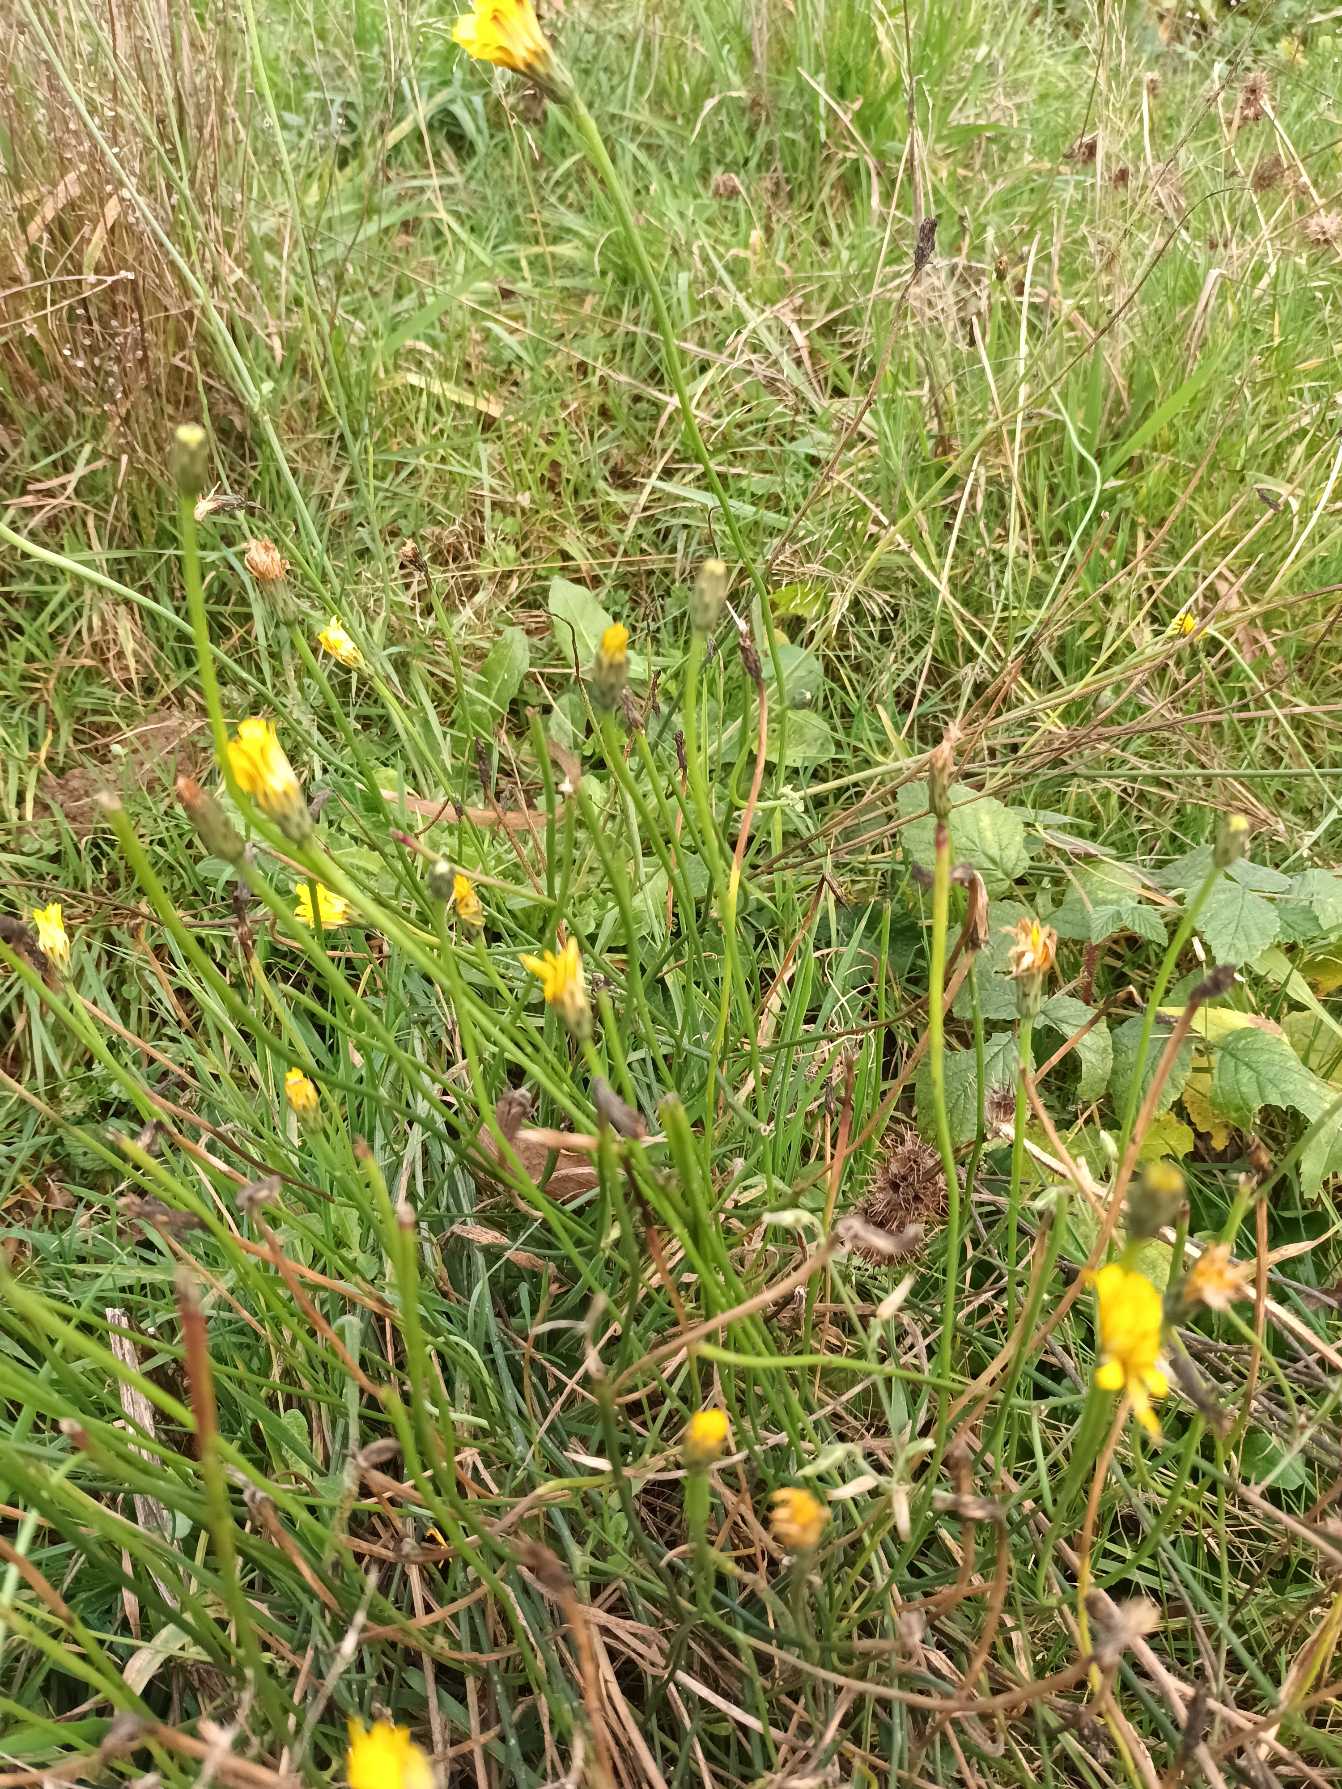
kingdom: Plantae
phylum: Tracheophyta
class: Magnoliopsida
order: Asterales
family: Asteraceae
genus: Hypochaeris
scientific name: Hypochaeris radicata
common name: Almindelig kongepen
